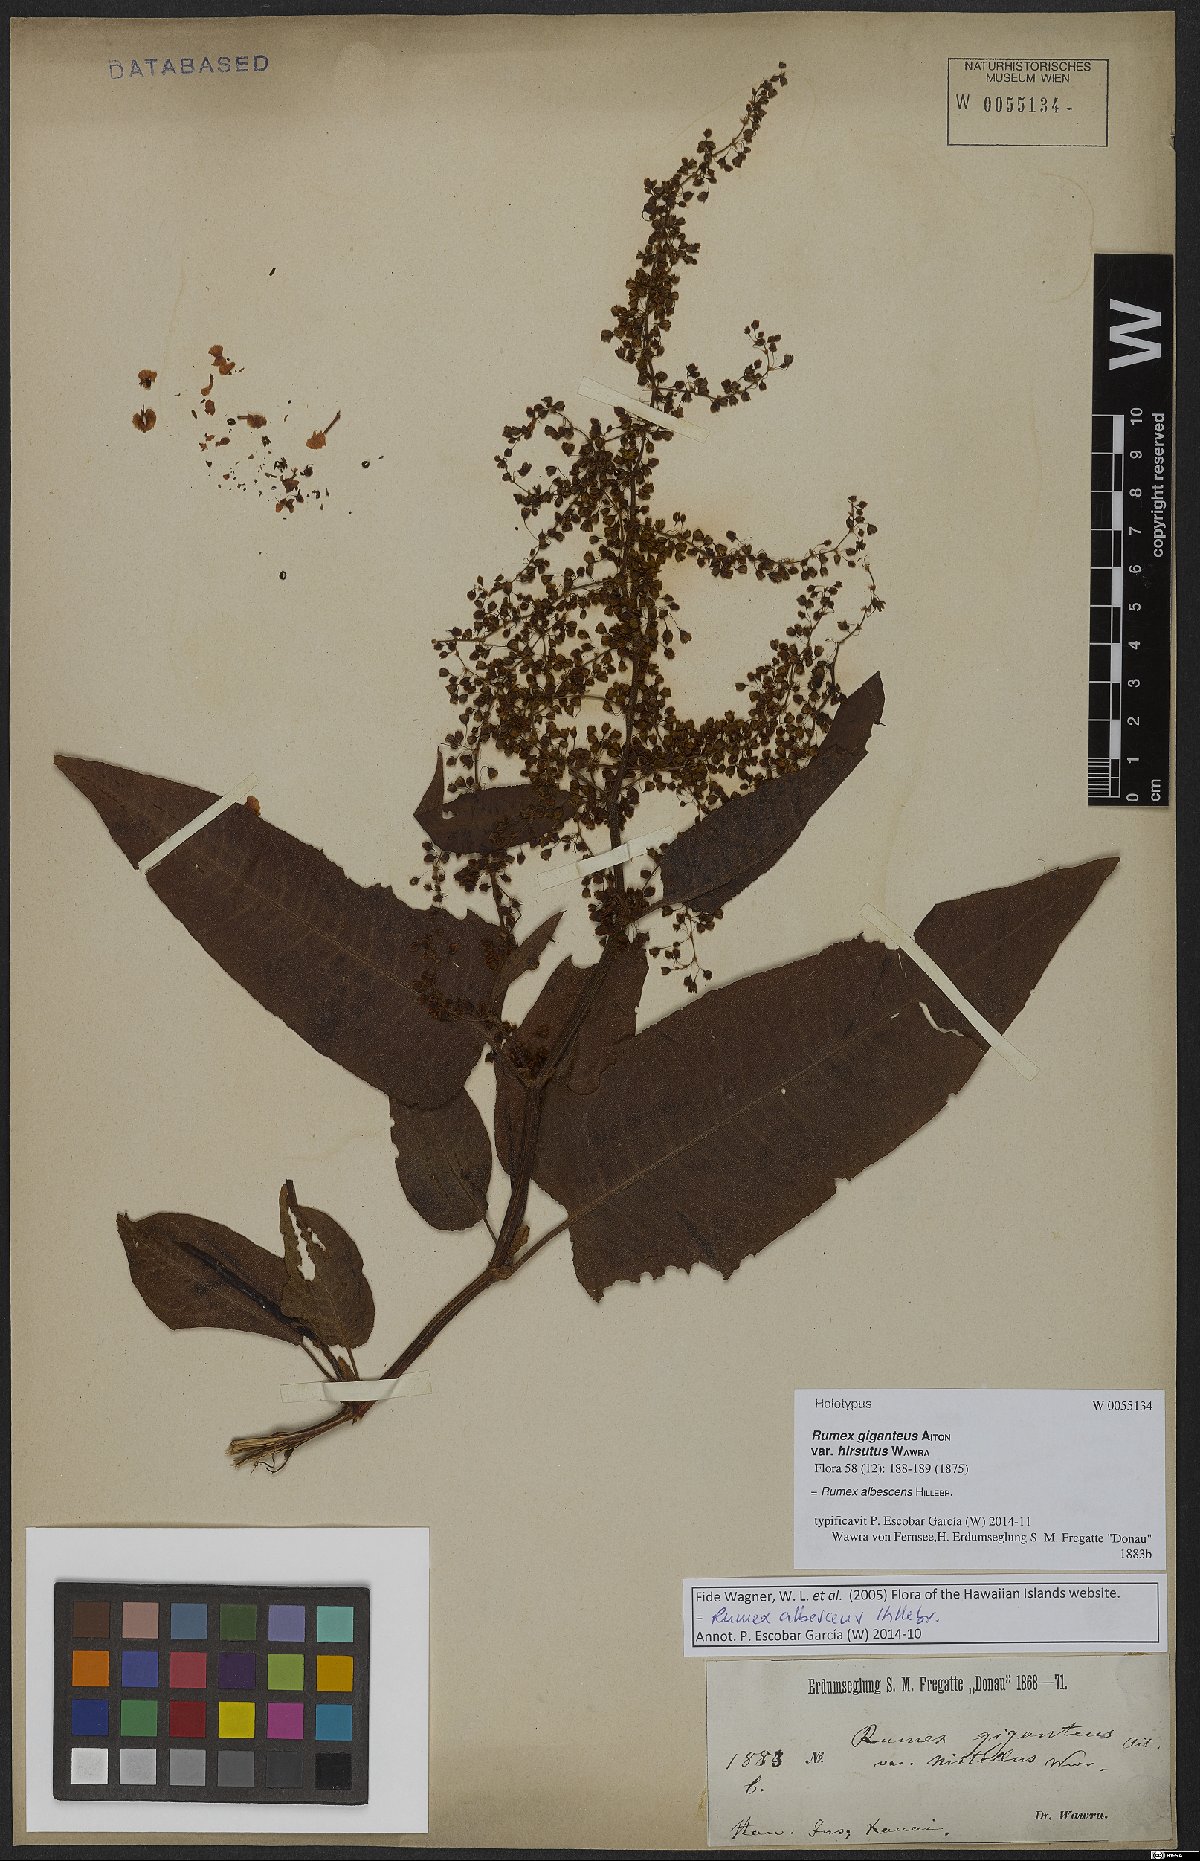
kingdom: Plantae
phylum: Tracheophyta
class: Magnoliopsida
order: Caryophyllales
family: Polygonaceae
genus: Rumex
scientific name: Rumex albescens
